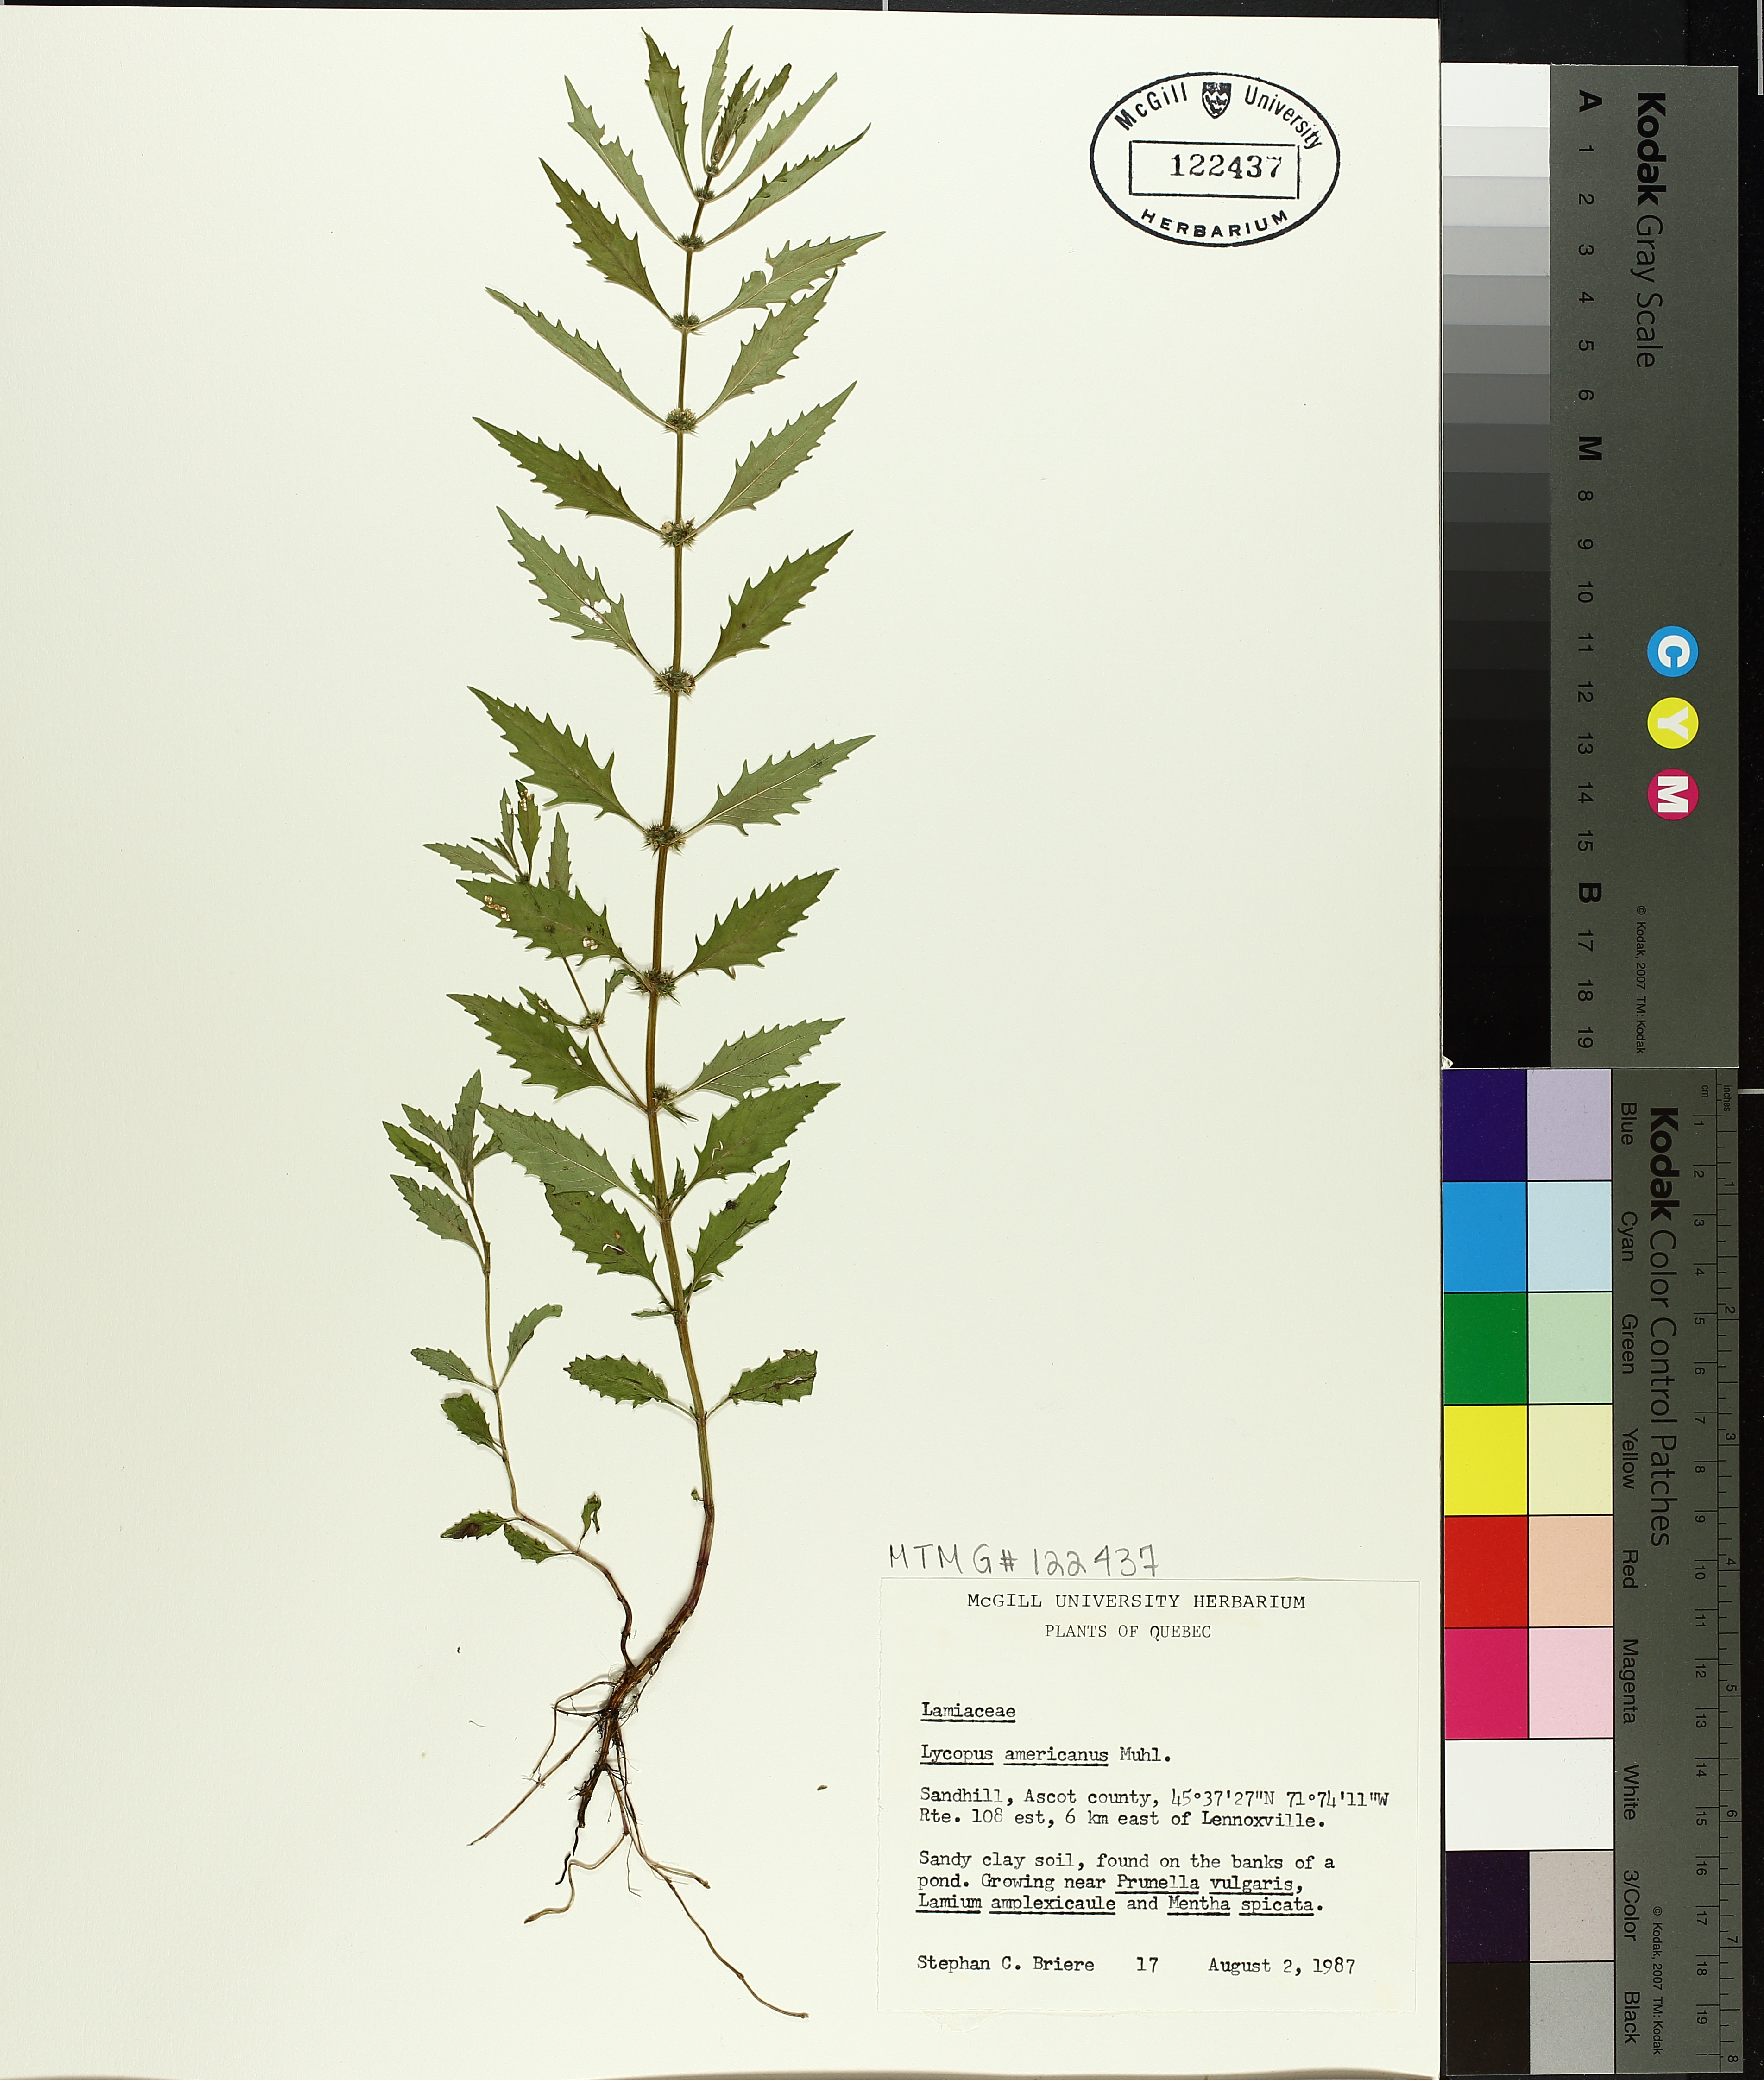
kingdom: Plantae
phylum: Tracheophyta
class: Magnoliopsida
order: Lamiales
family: Lamiaceae
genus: Lycopus
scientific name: Lycopus americanus
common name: American bugleweed
